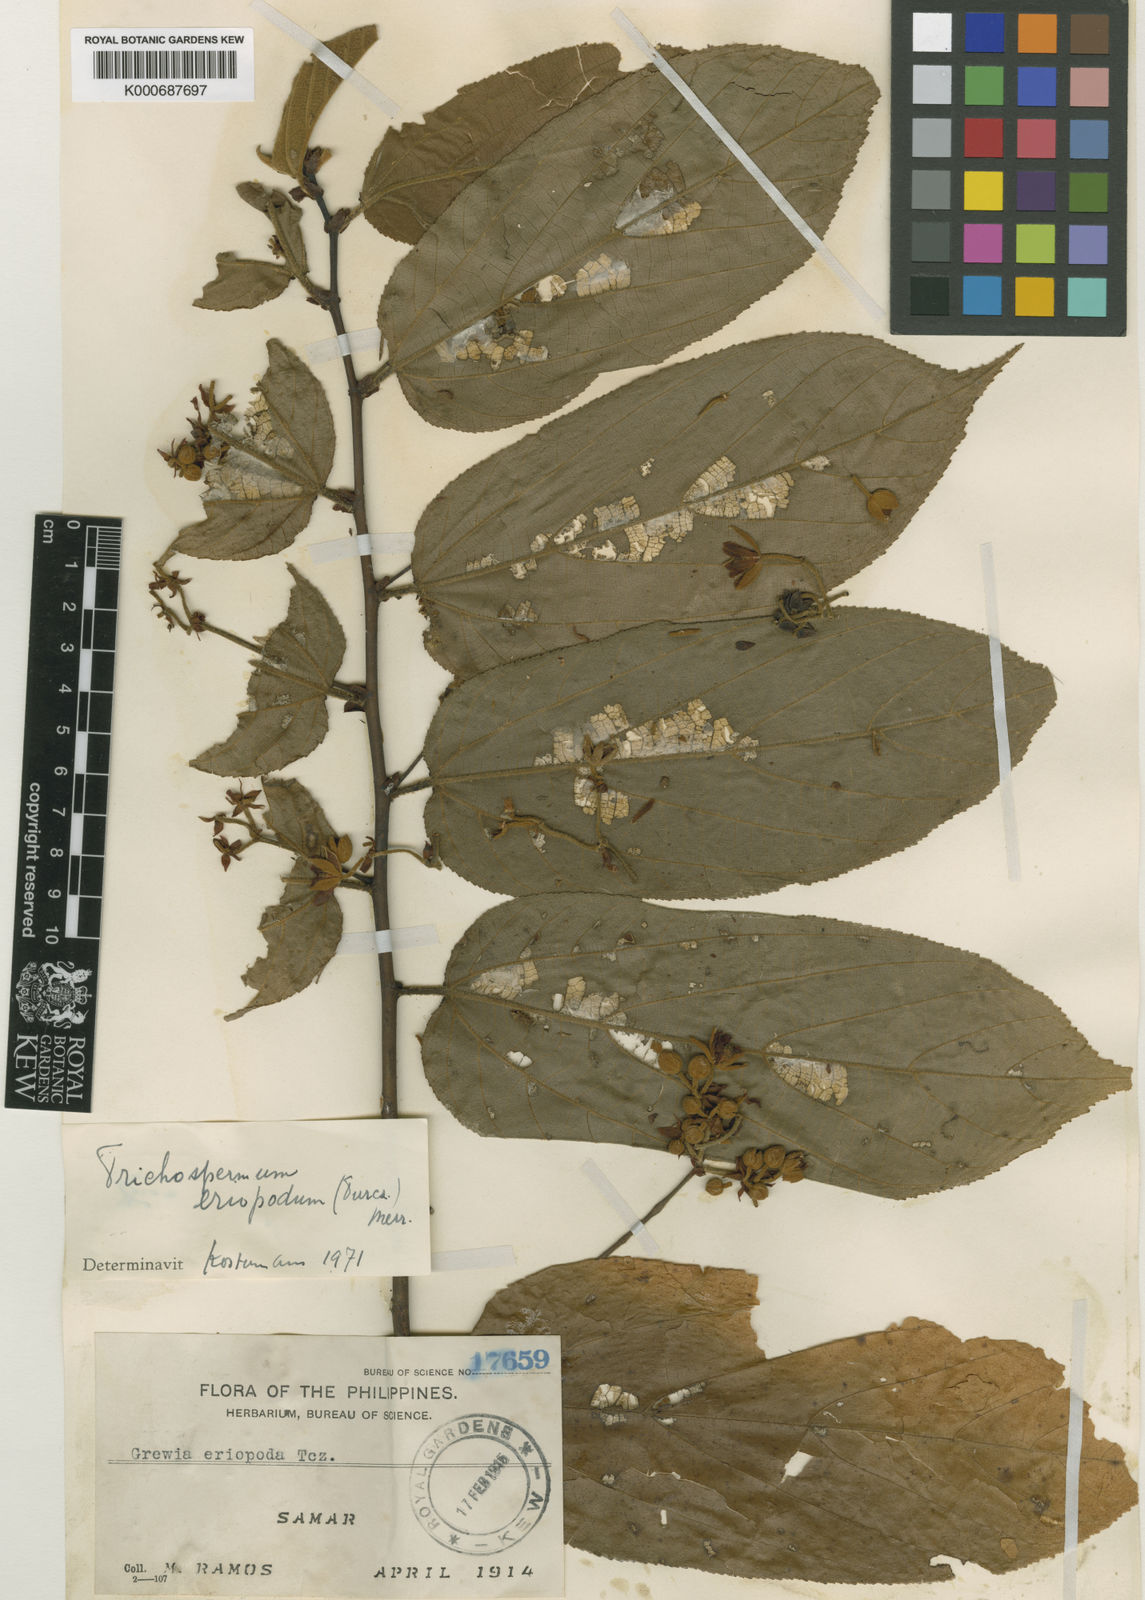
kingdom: Plantae
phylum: Tracheophyta
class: Magnoliopsida
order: Malvales
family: Malvaceae
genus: Trichospermum
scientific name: Trichospermum eriopodum
